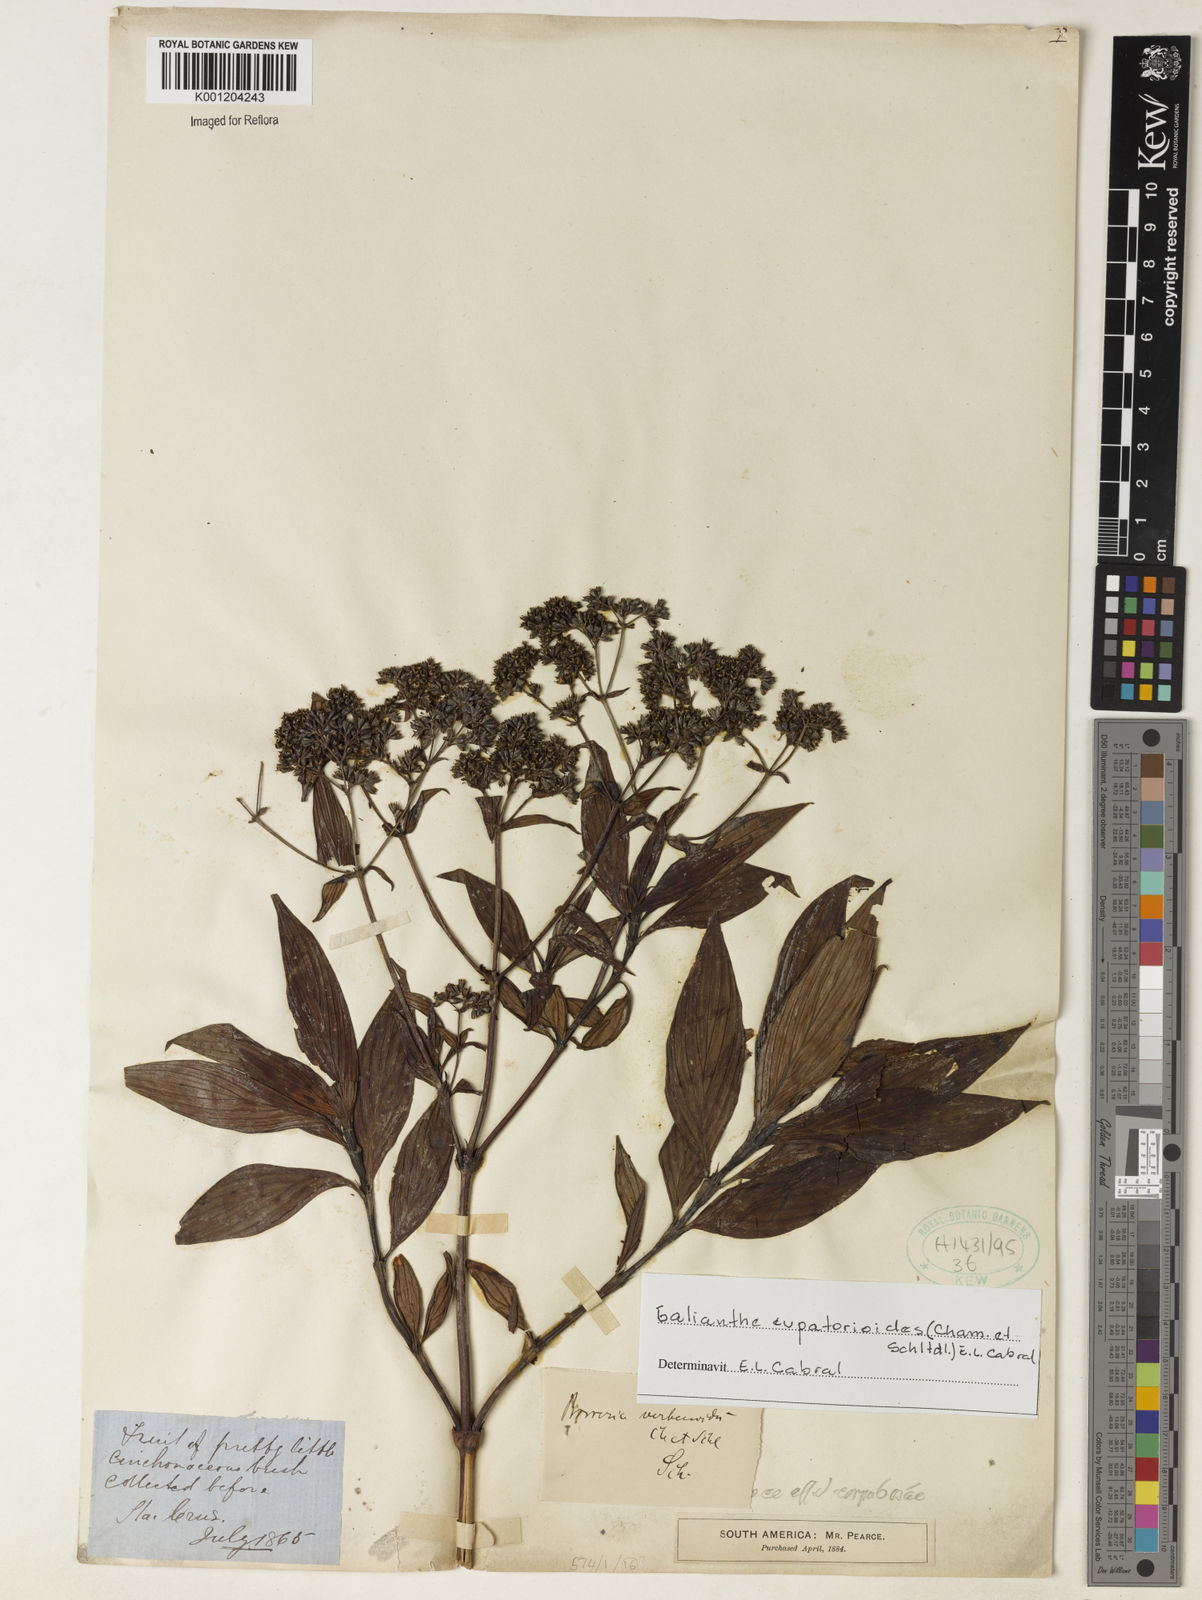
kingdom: Plantae
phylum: Tracheophyta
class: Magnoliopsida
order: Gentianales
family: Rubiaceae
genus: Galianthe
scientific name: Galianthe eupatorioides
